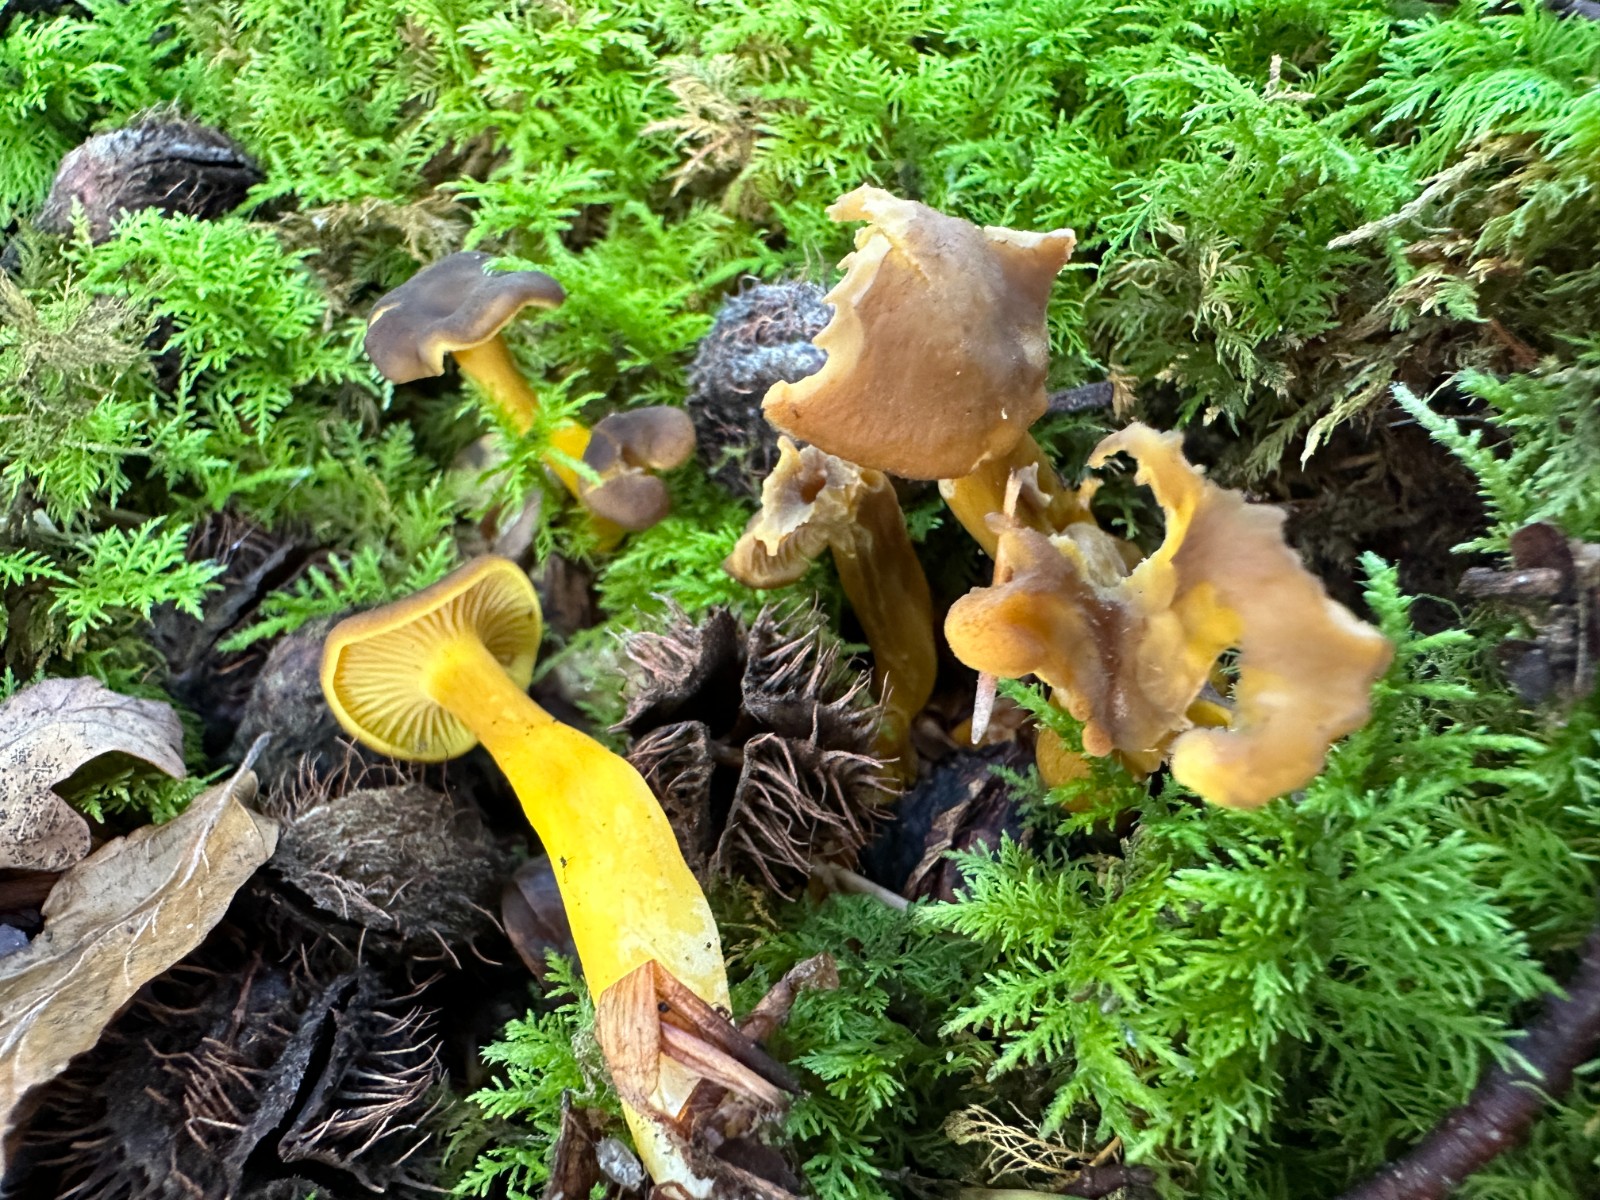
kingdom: Fungi
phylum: Basidiomycota
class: Agaricomycetes
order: Cantharellales
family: Hydnaceae
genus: Craterellus
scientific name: Craterellus tubaeformis
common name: tragt-kantarel
